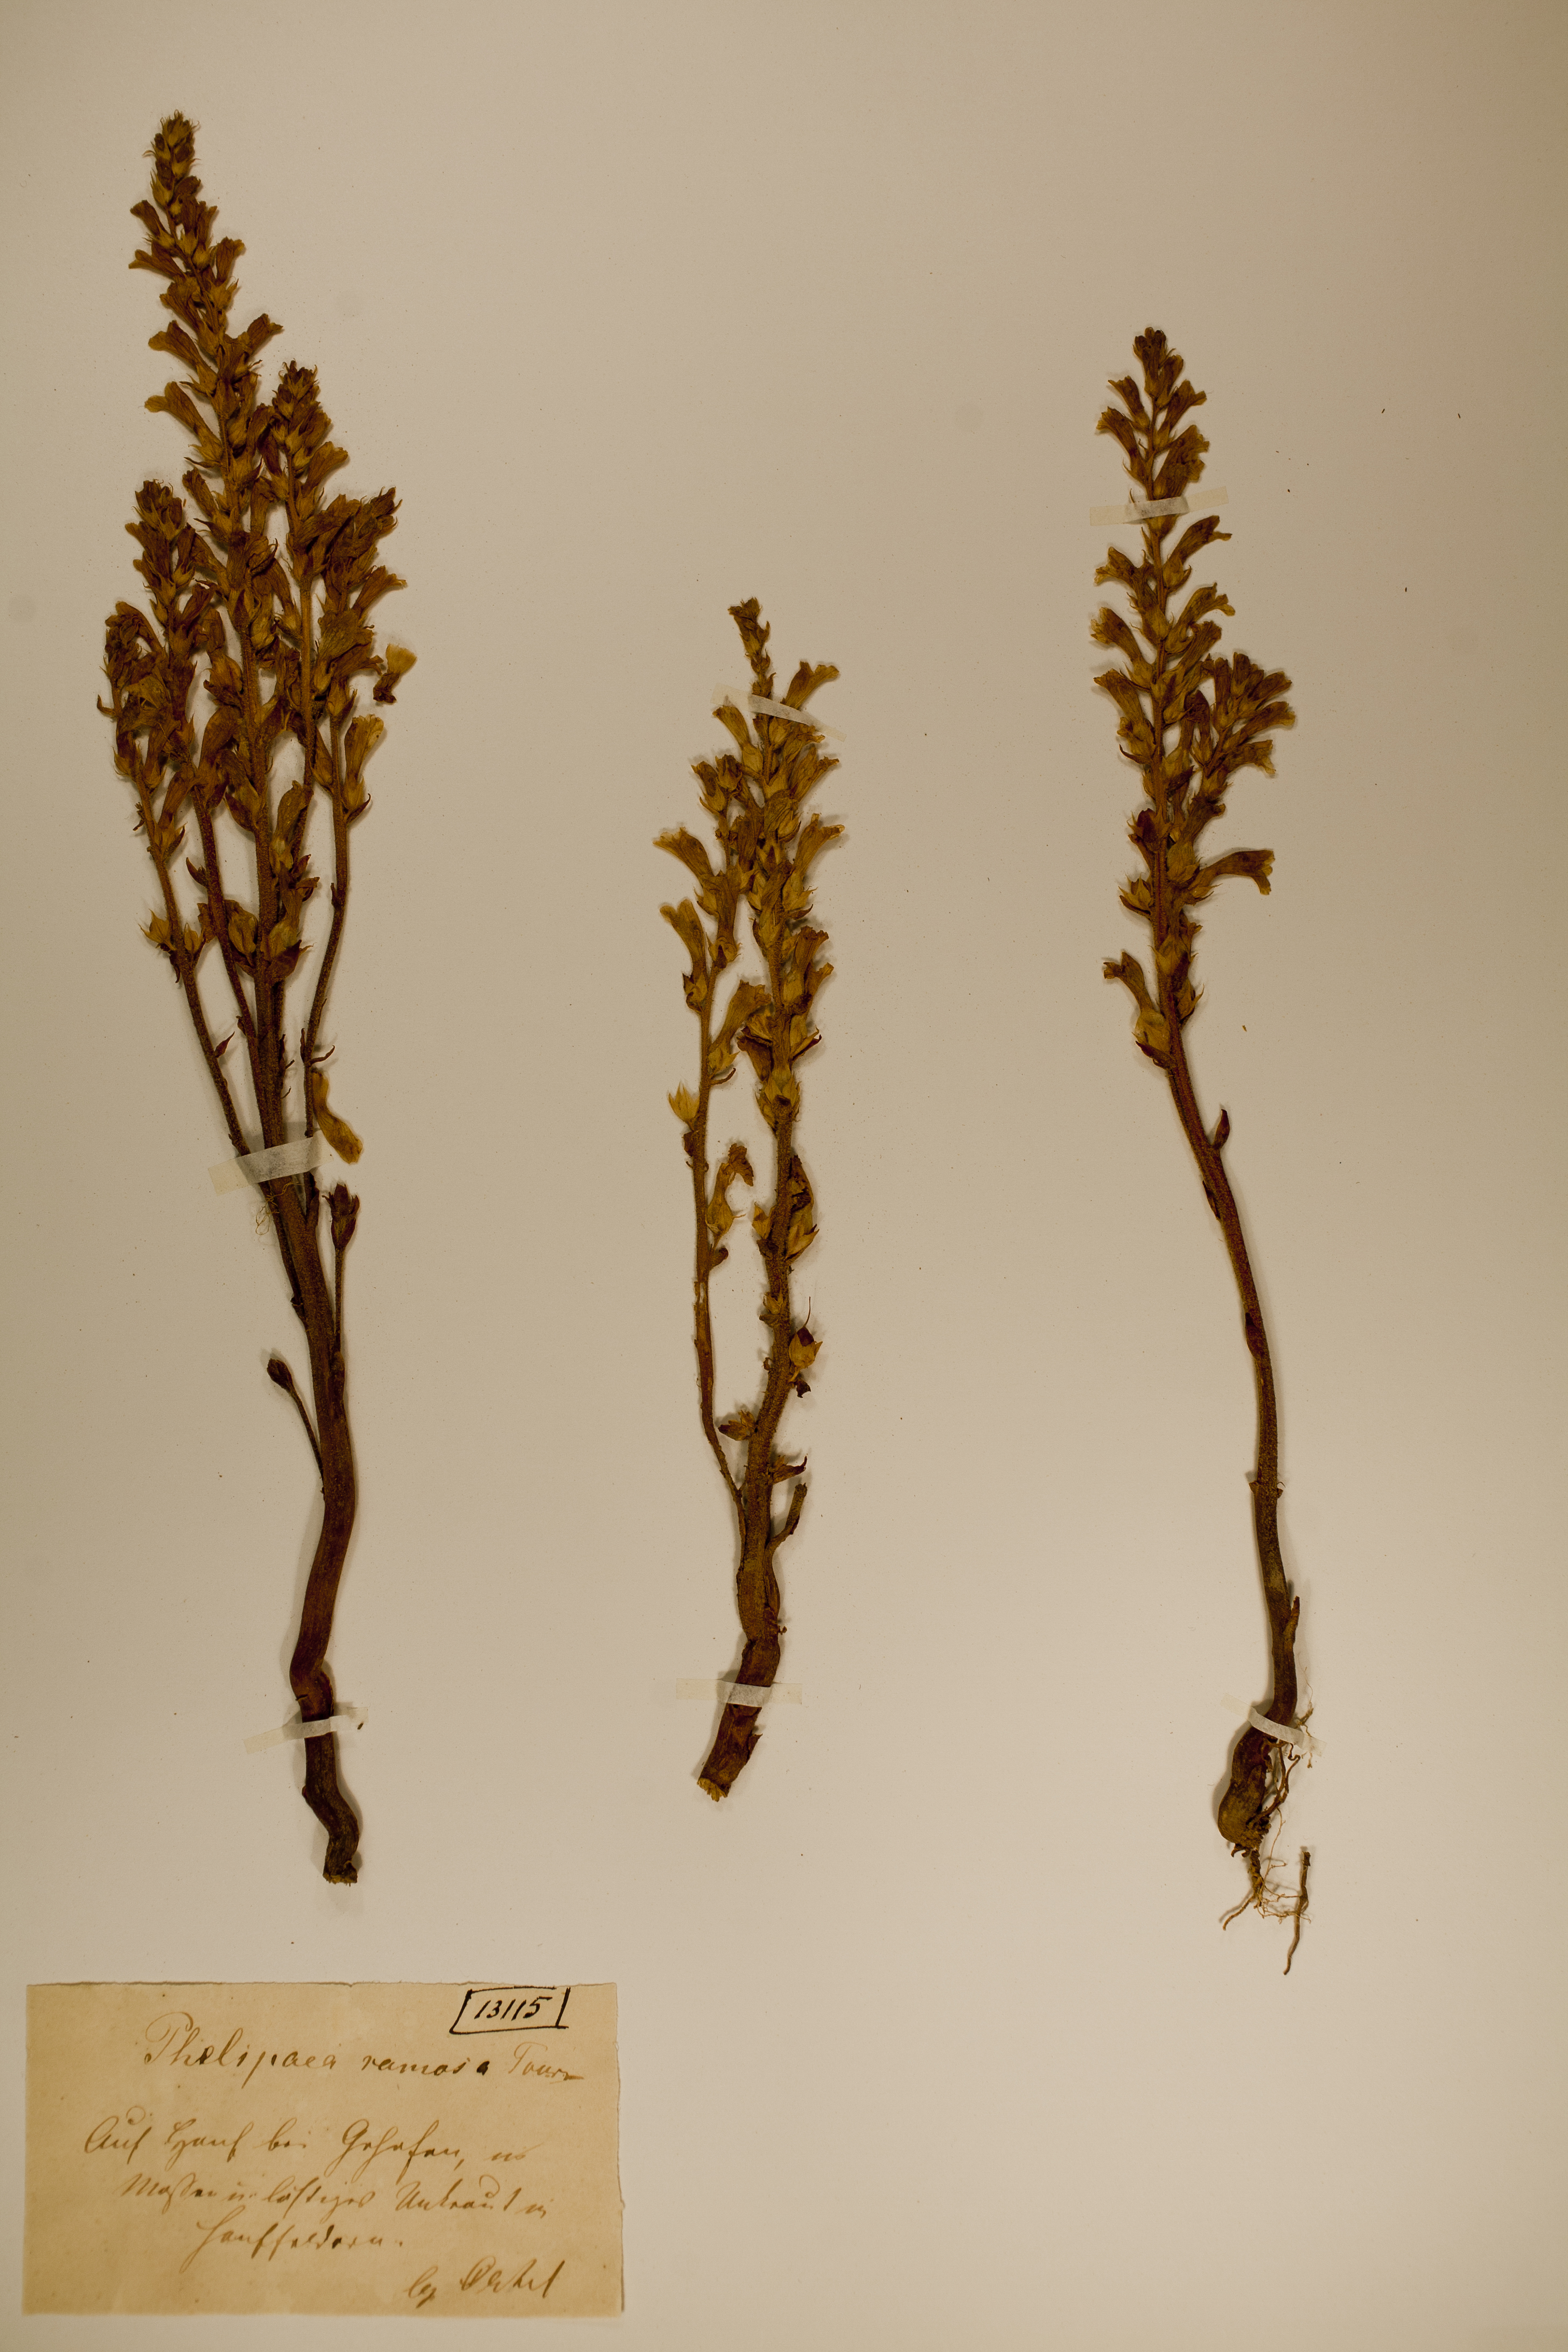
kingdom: Plantae
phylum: Tracheophyta
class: Magnoliopsida
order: Lamiales
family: Orobanchaceae
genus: Phelipanche
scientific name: Phelipanche ramosa
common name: Branched broomrape
